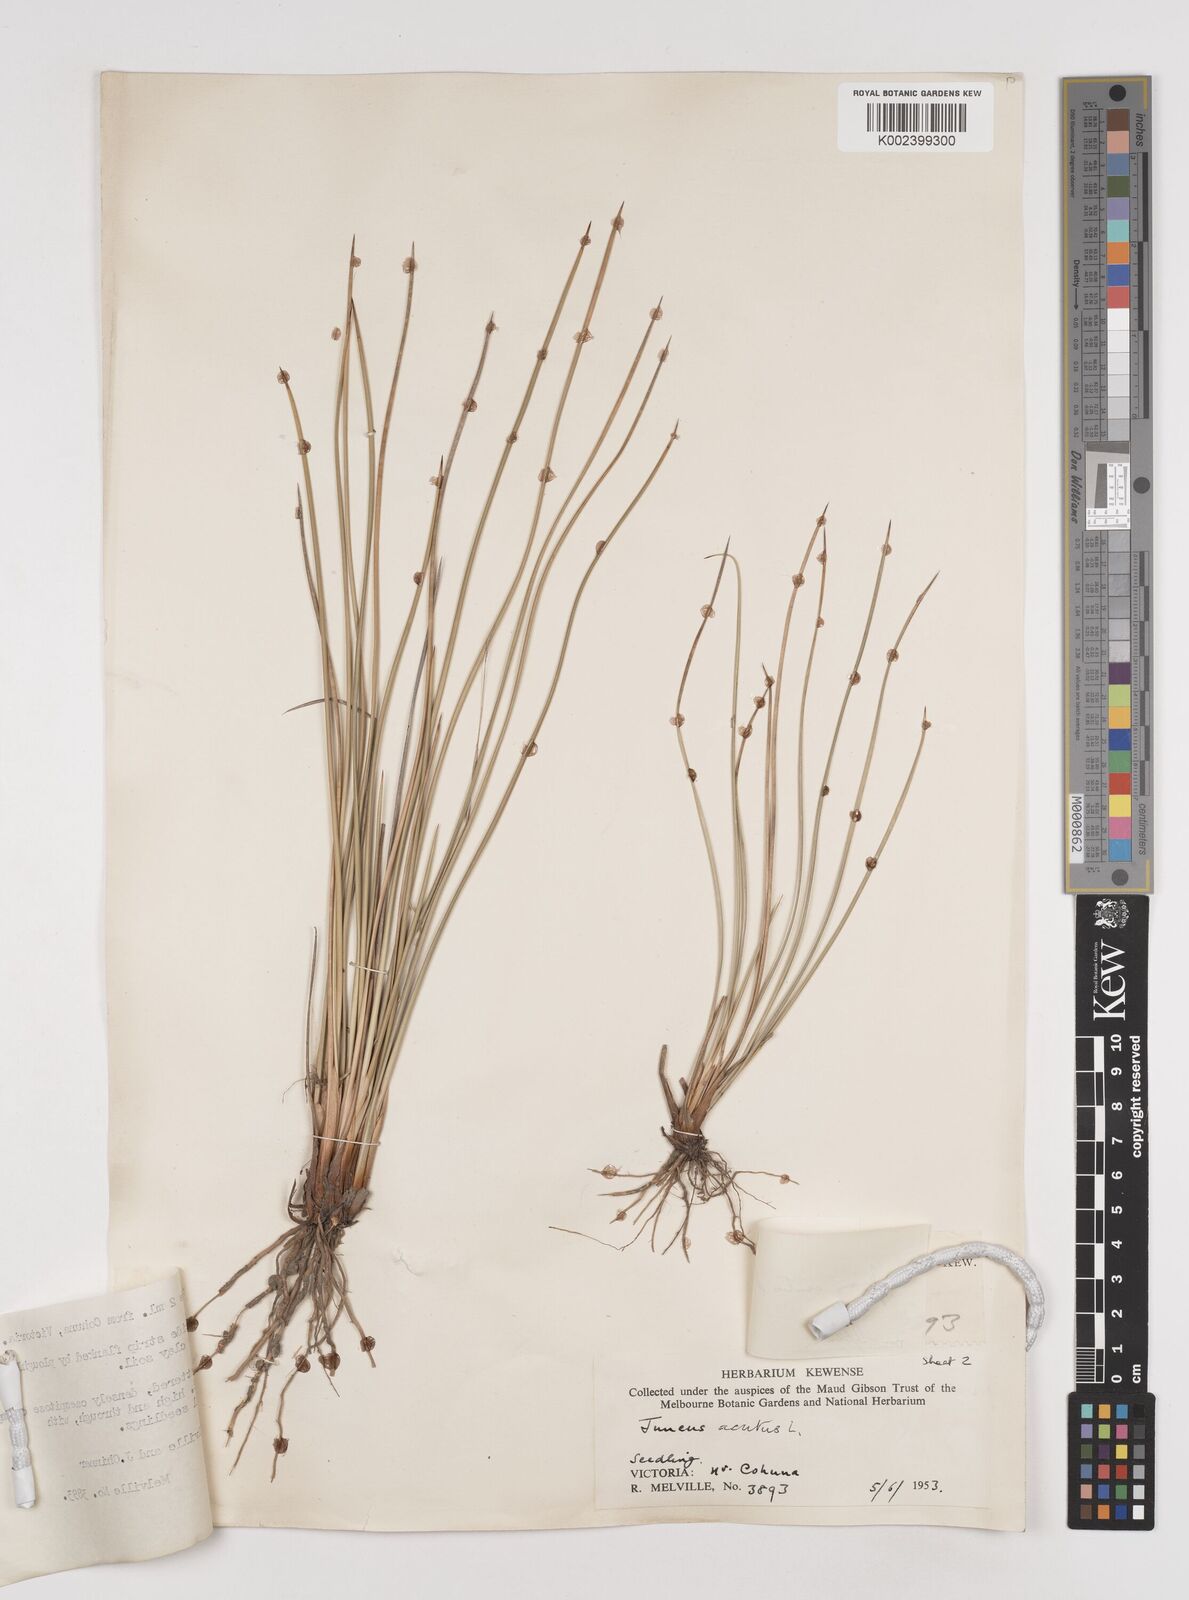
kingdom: Plantae
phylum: Tracheophyta
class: Liliopsida
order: Poales
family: Juncaceae
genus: Juncus
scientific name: Juncus acutus
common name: Sharp rush
